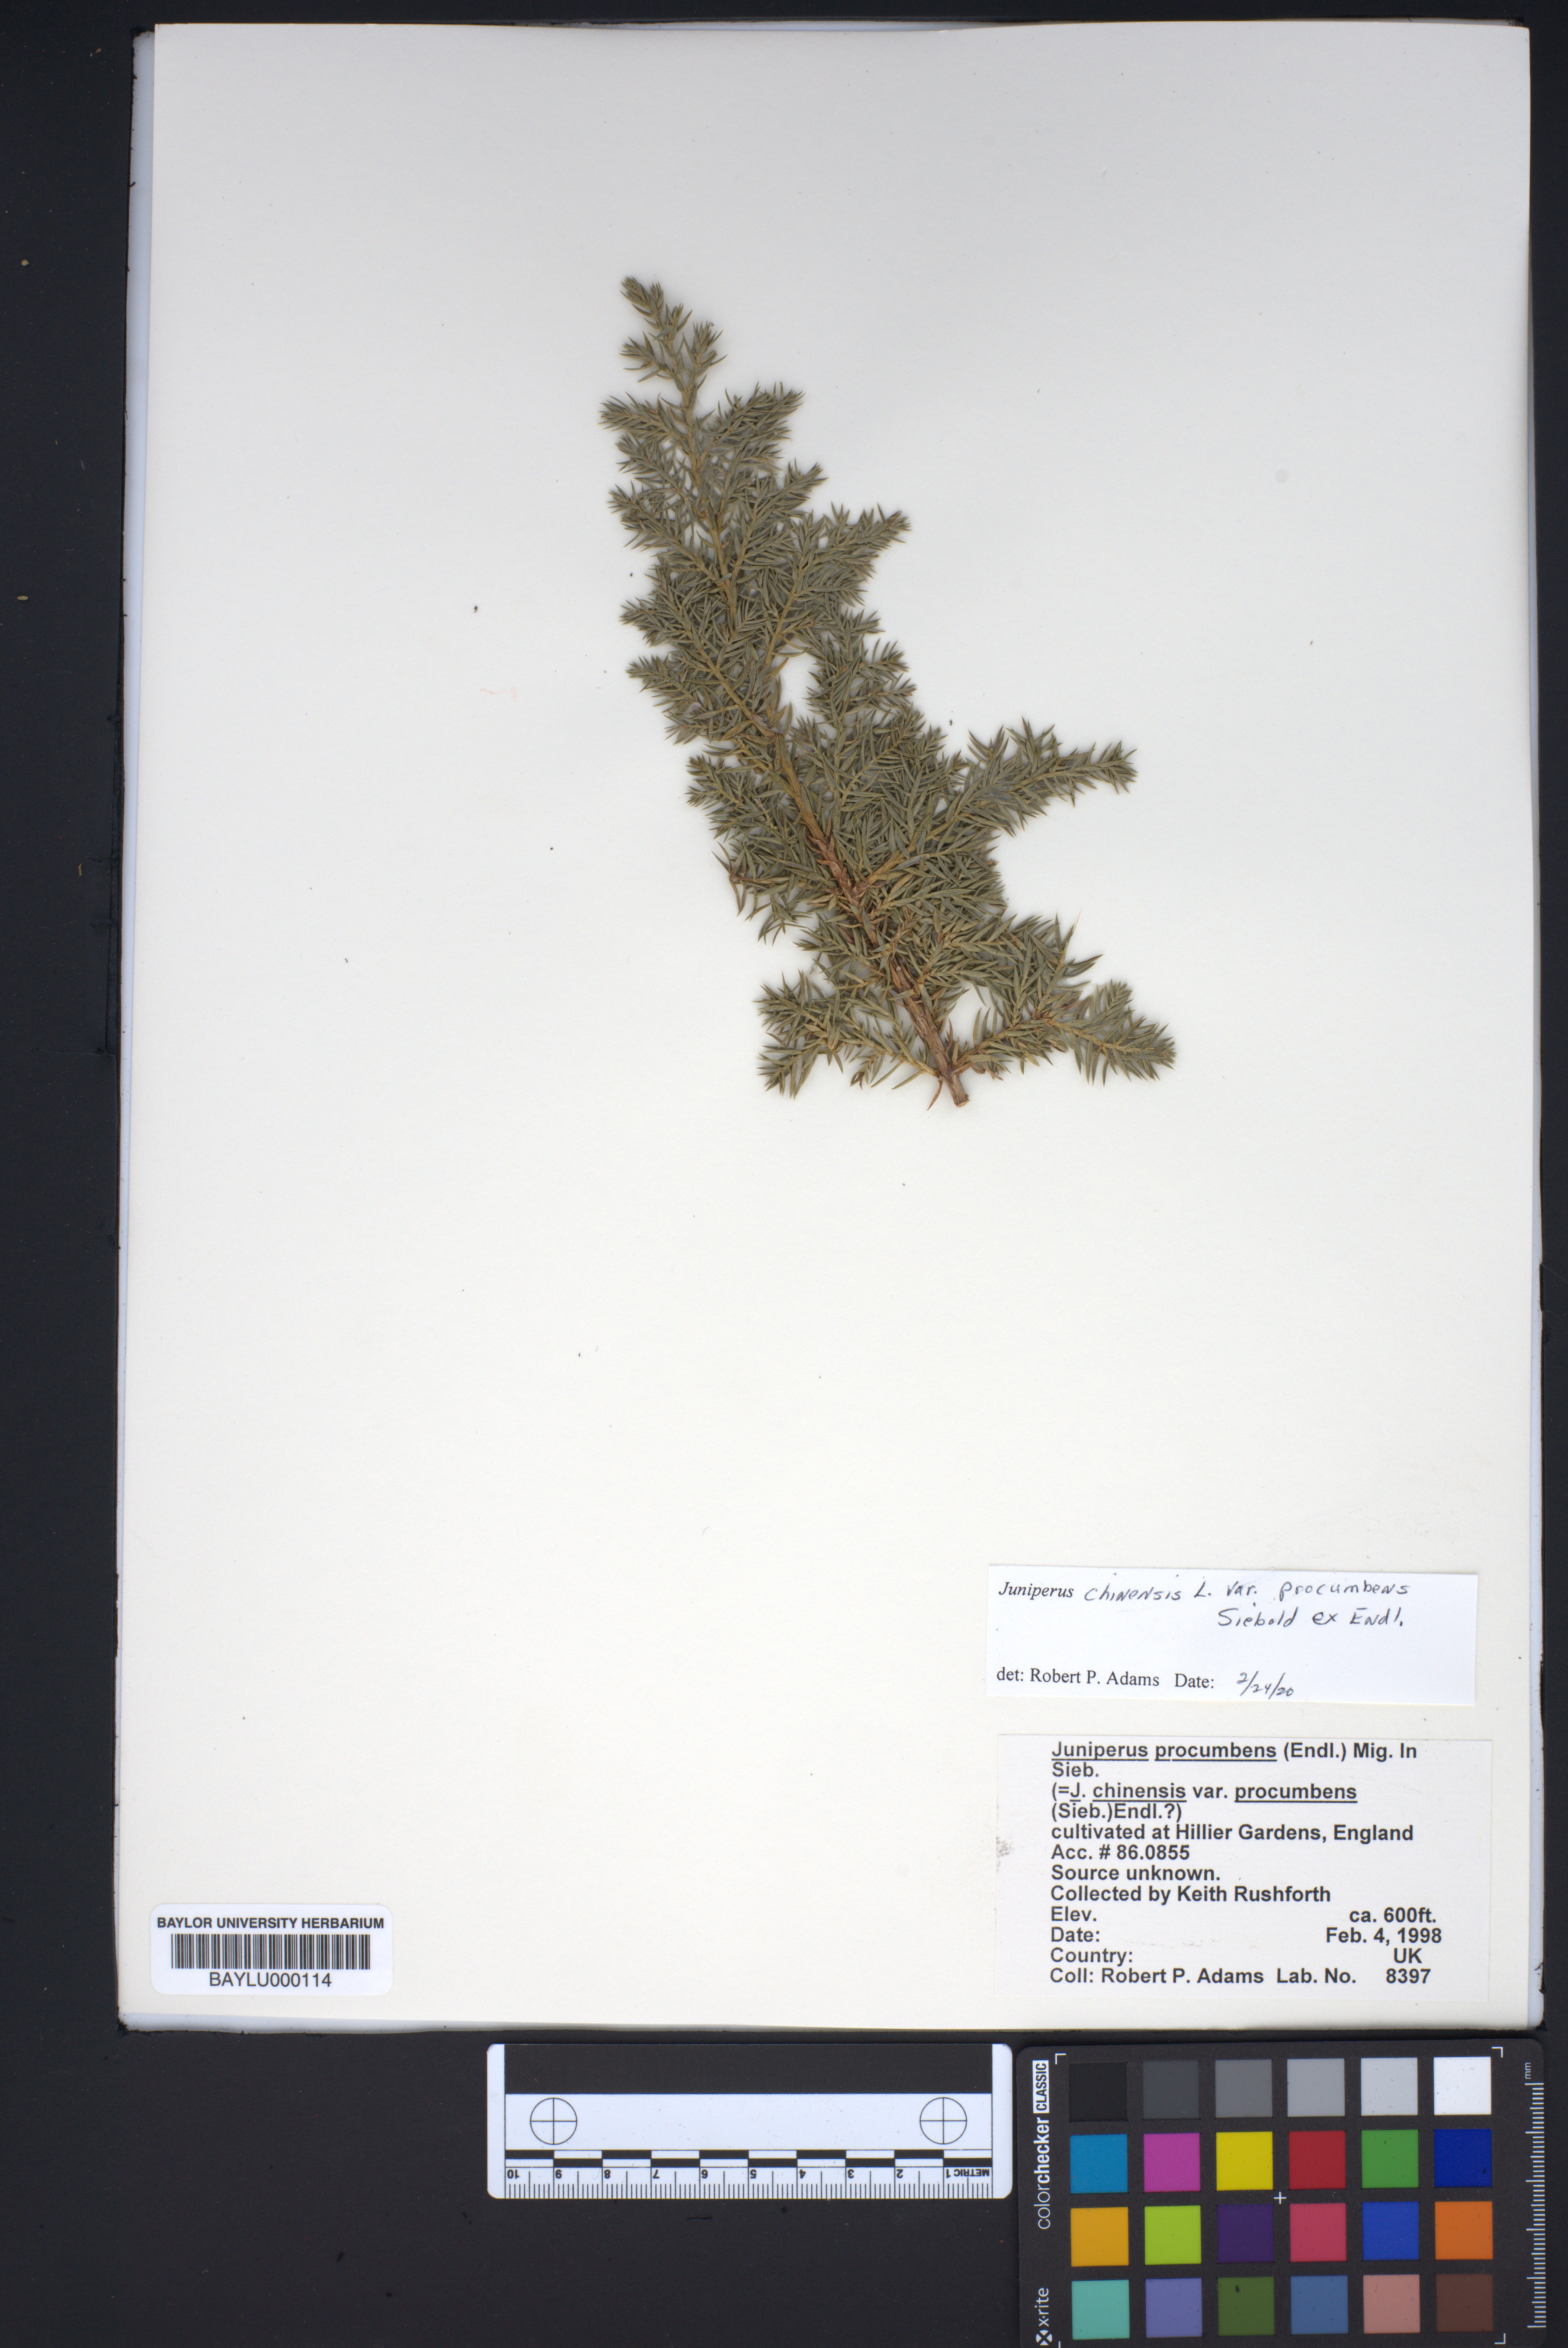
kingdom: Plantae
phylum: Tracheophyta
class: Pinopsida
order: Pinales
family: Cupressaceae
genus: Juniperus
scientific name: Juniperus procumbens
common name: Creeping juniper
